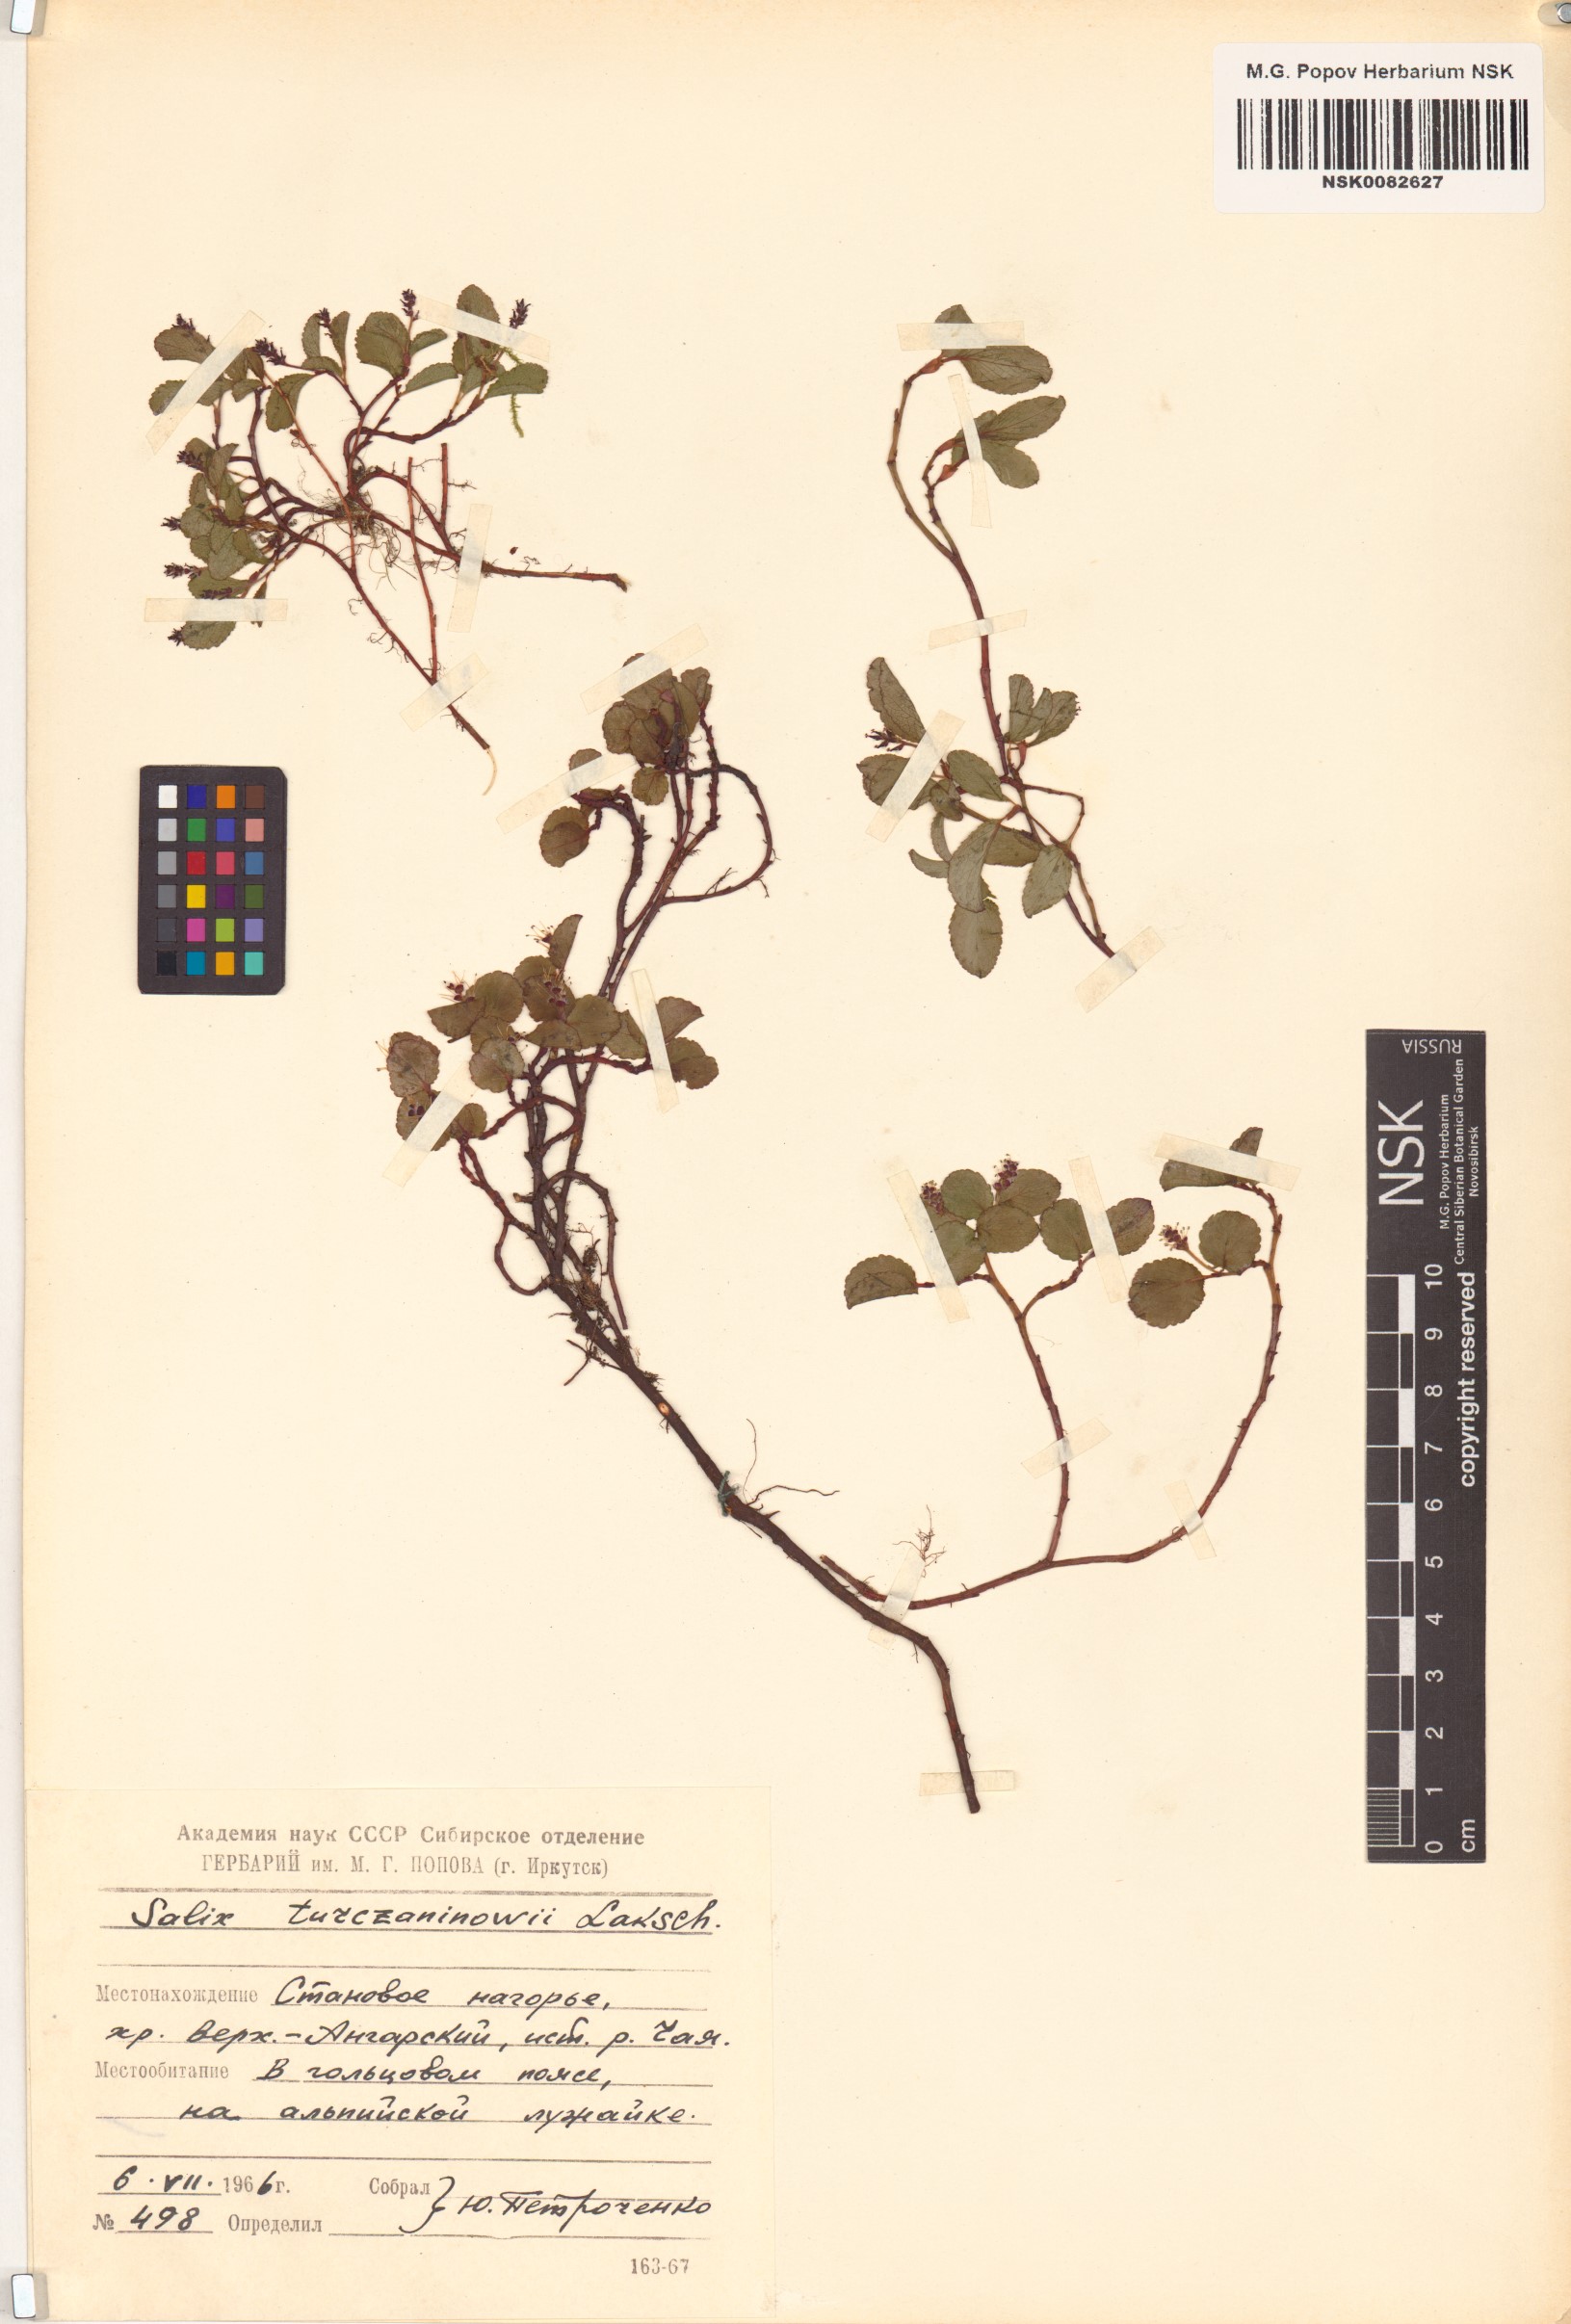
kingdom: Plantae
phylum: Tracheophyta
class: Magnoliopsida
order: Malpighiales
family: Salicaceae
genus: Salix
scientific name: Salix turczaninowii
